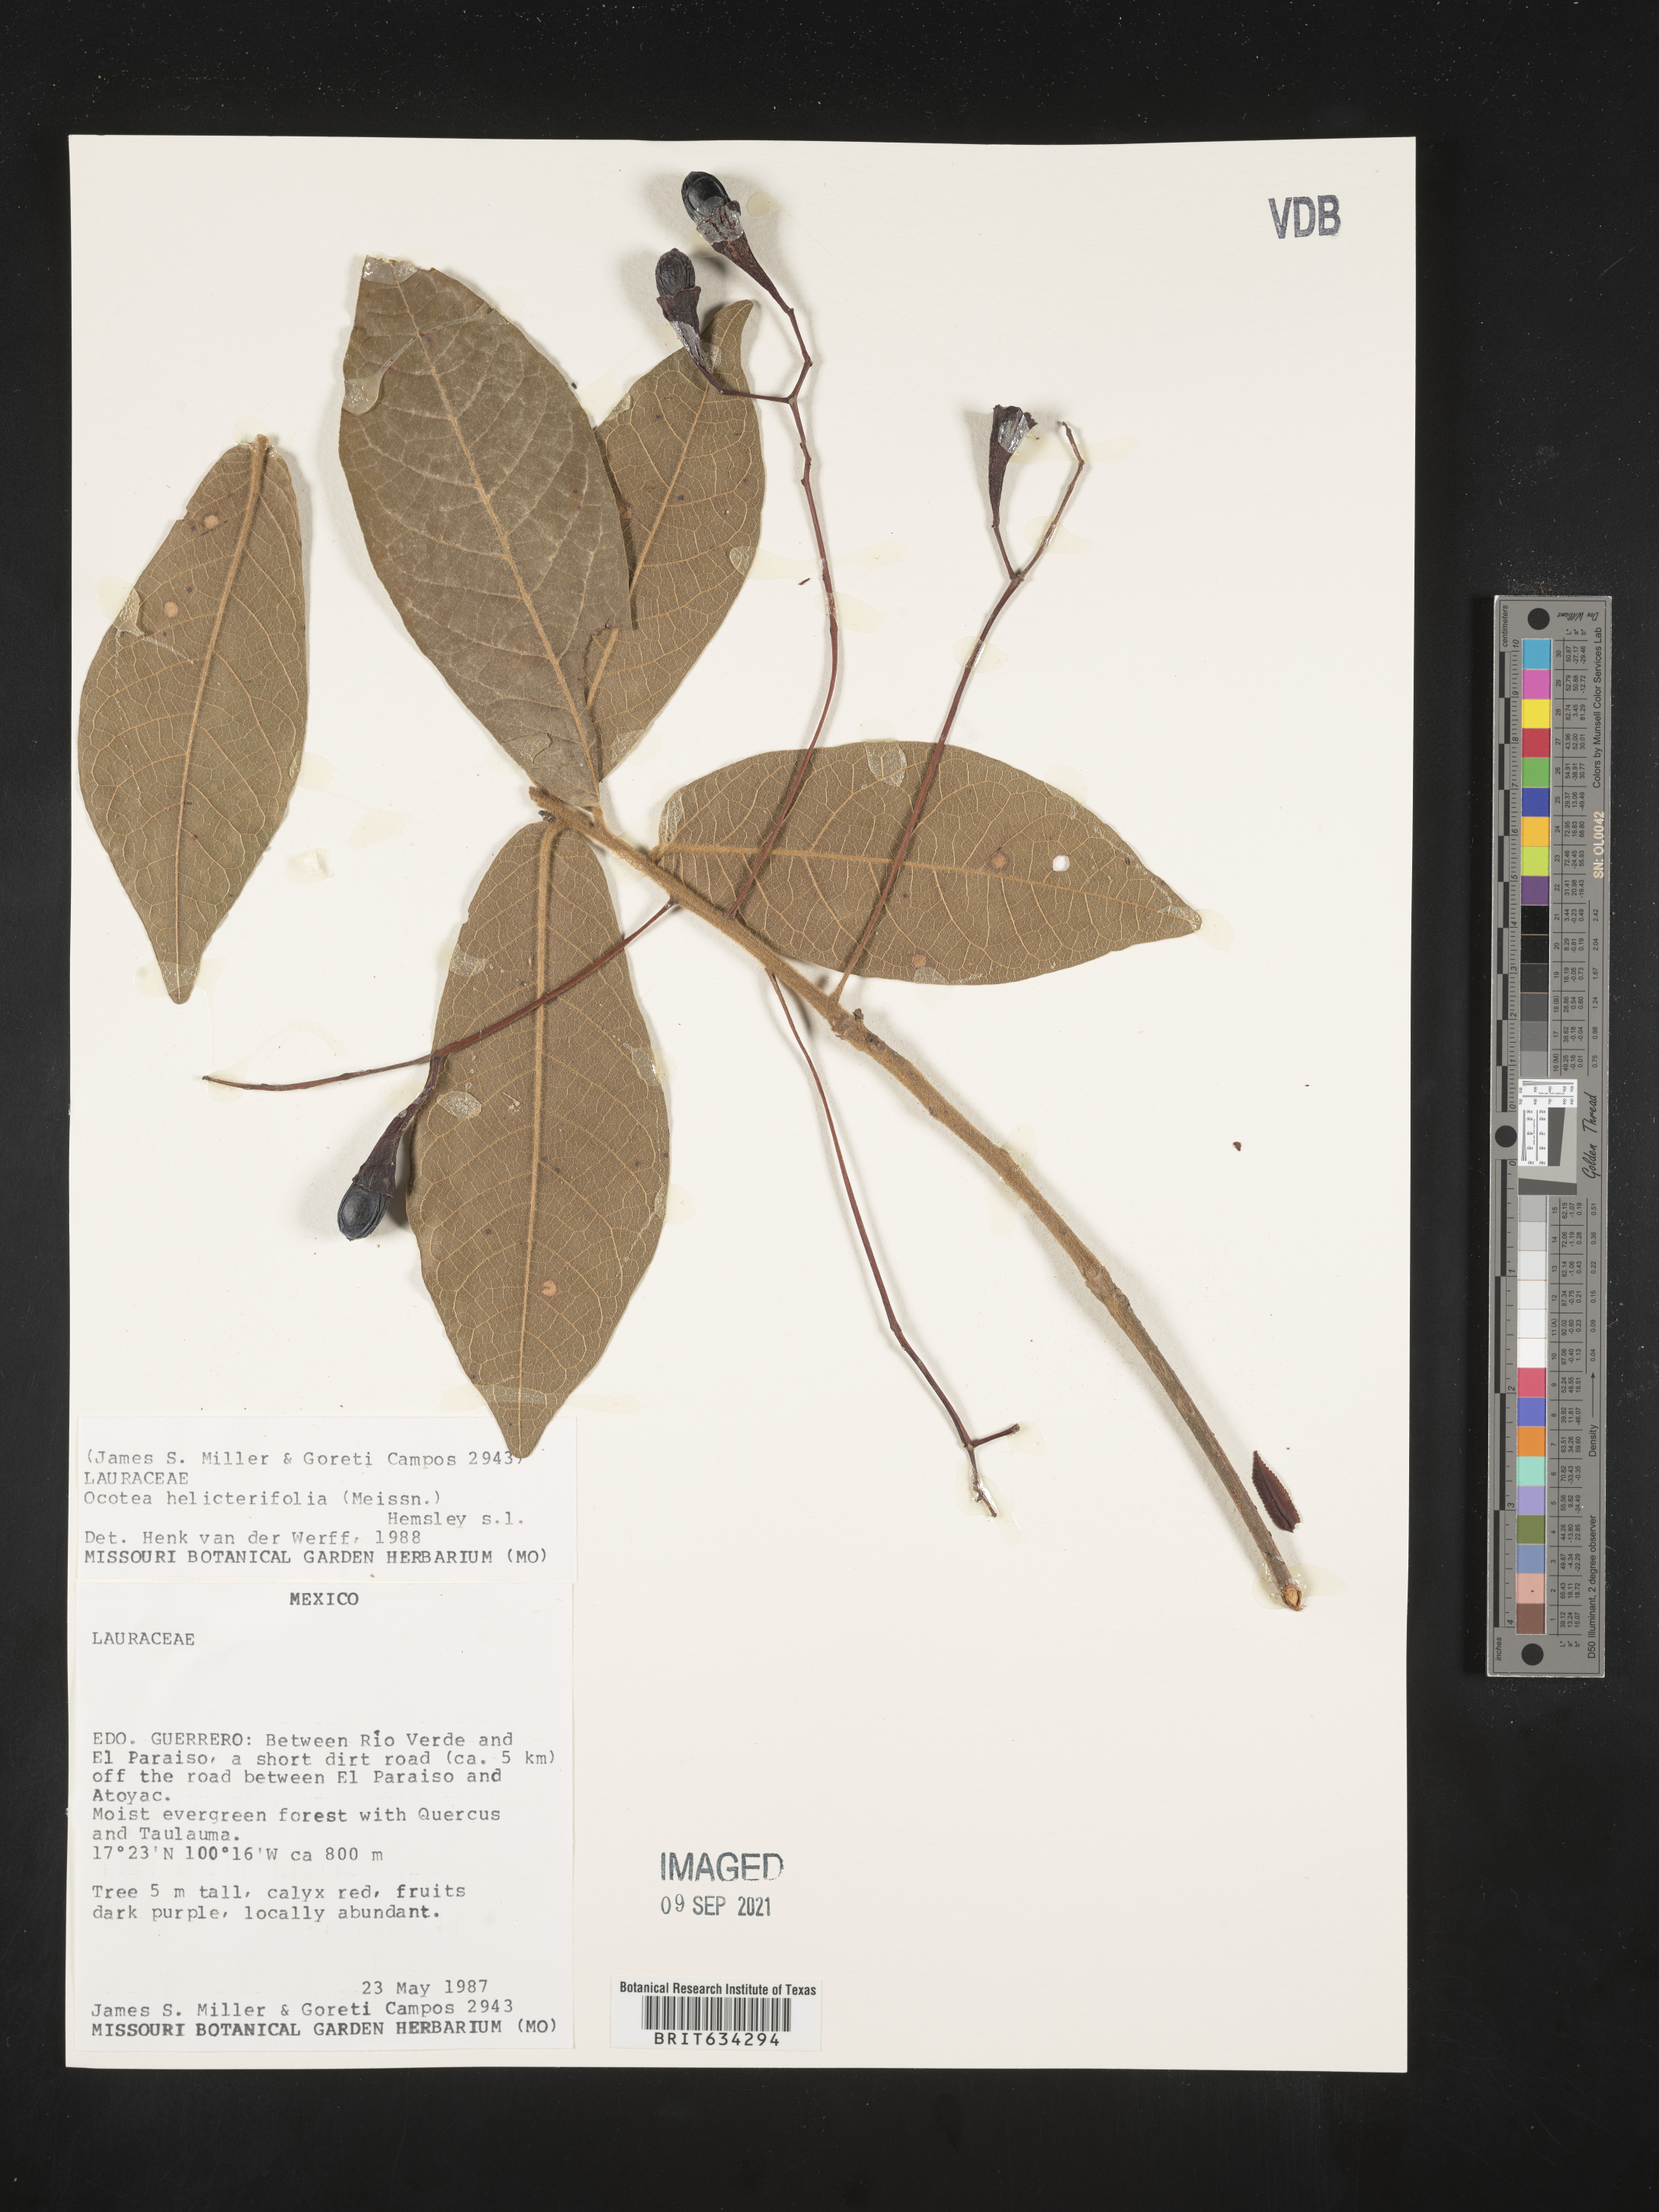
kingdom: Plantae
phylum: Tracheophyta
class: Magnoliopsida
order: Laurales
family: Lauraceae
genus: Ocotea
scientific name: Ocotea
